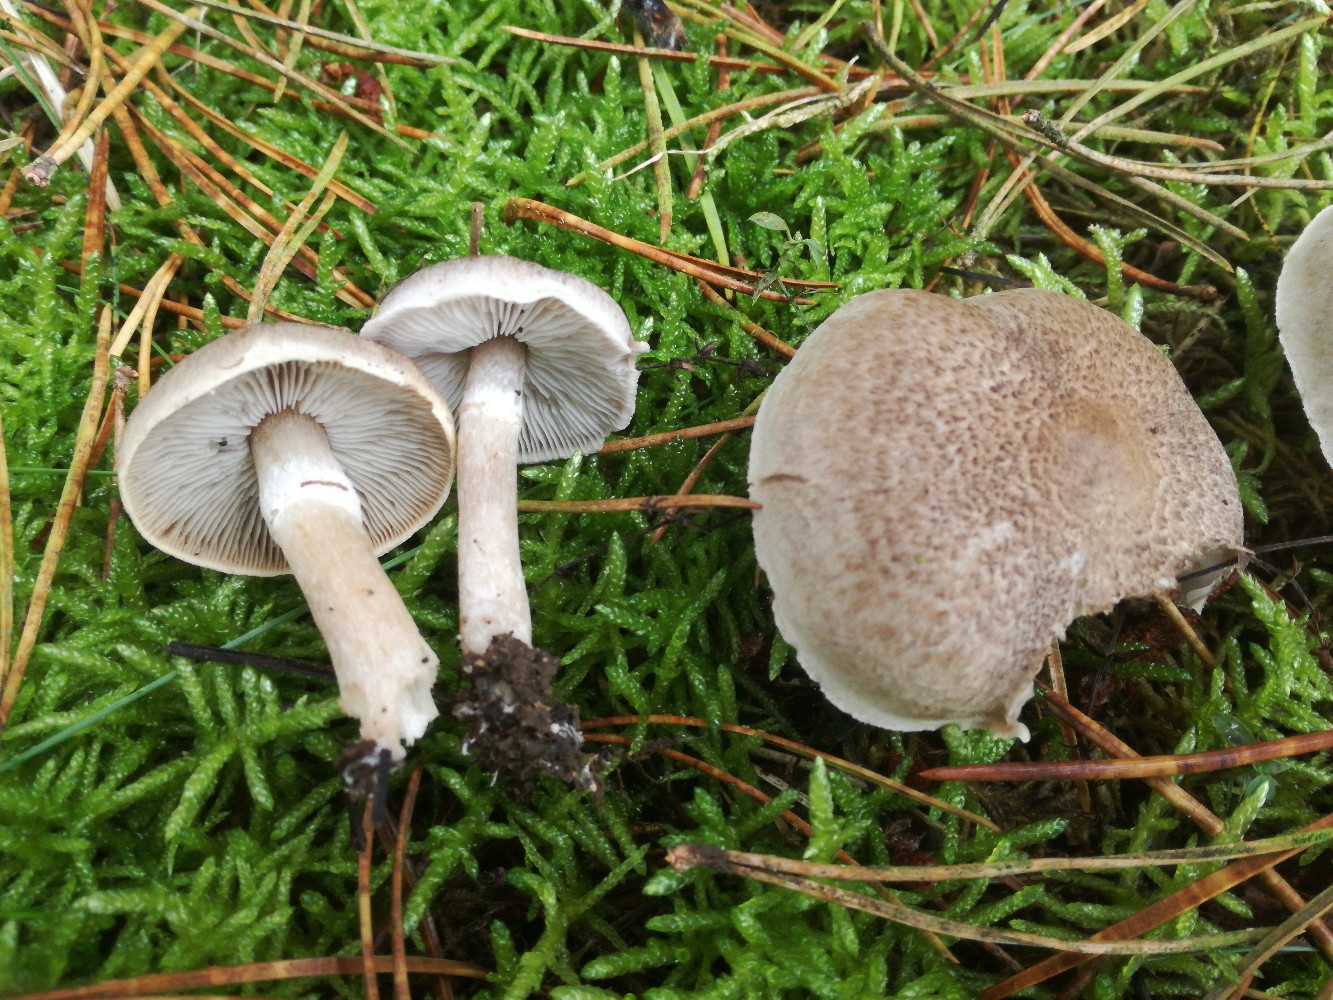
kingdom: Fungi
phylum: Basidiomycota
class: Agaricomycetes
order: Agaricales
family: Tricholomataceae
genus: Tricholoma
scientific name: Tricholoma cingulatum
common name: ring-ridderhat
